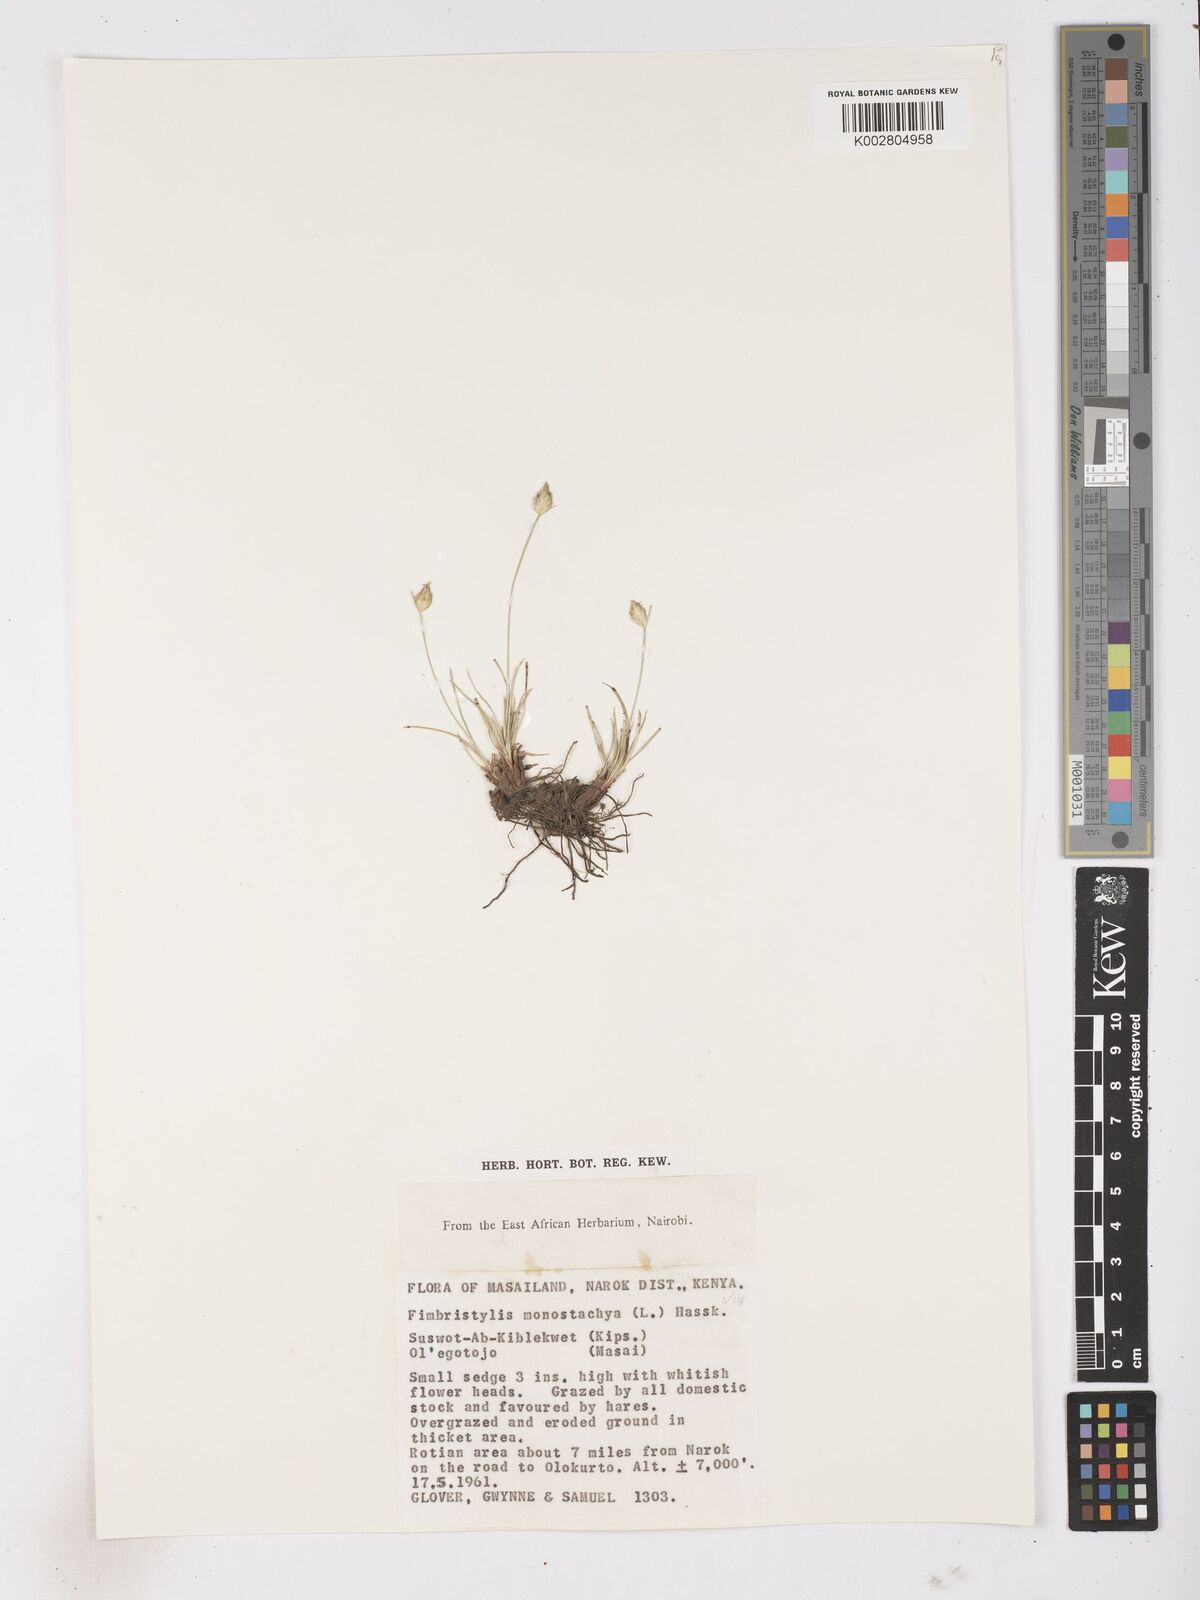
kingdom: Plantae
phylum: Tracheophyta
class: Liliopsida
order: Poales
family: Cyperaceae
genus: Abildgaardia
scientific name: Abildgaardia ovata
